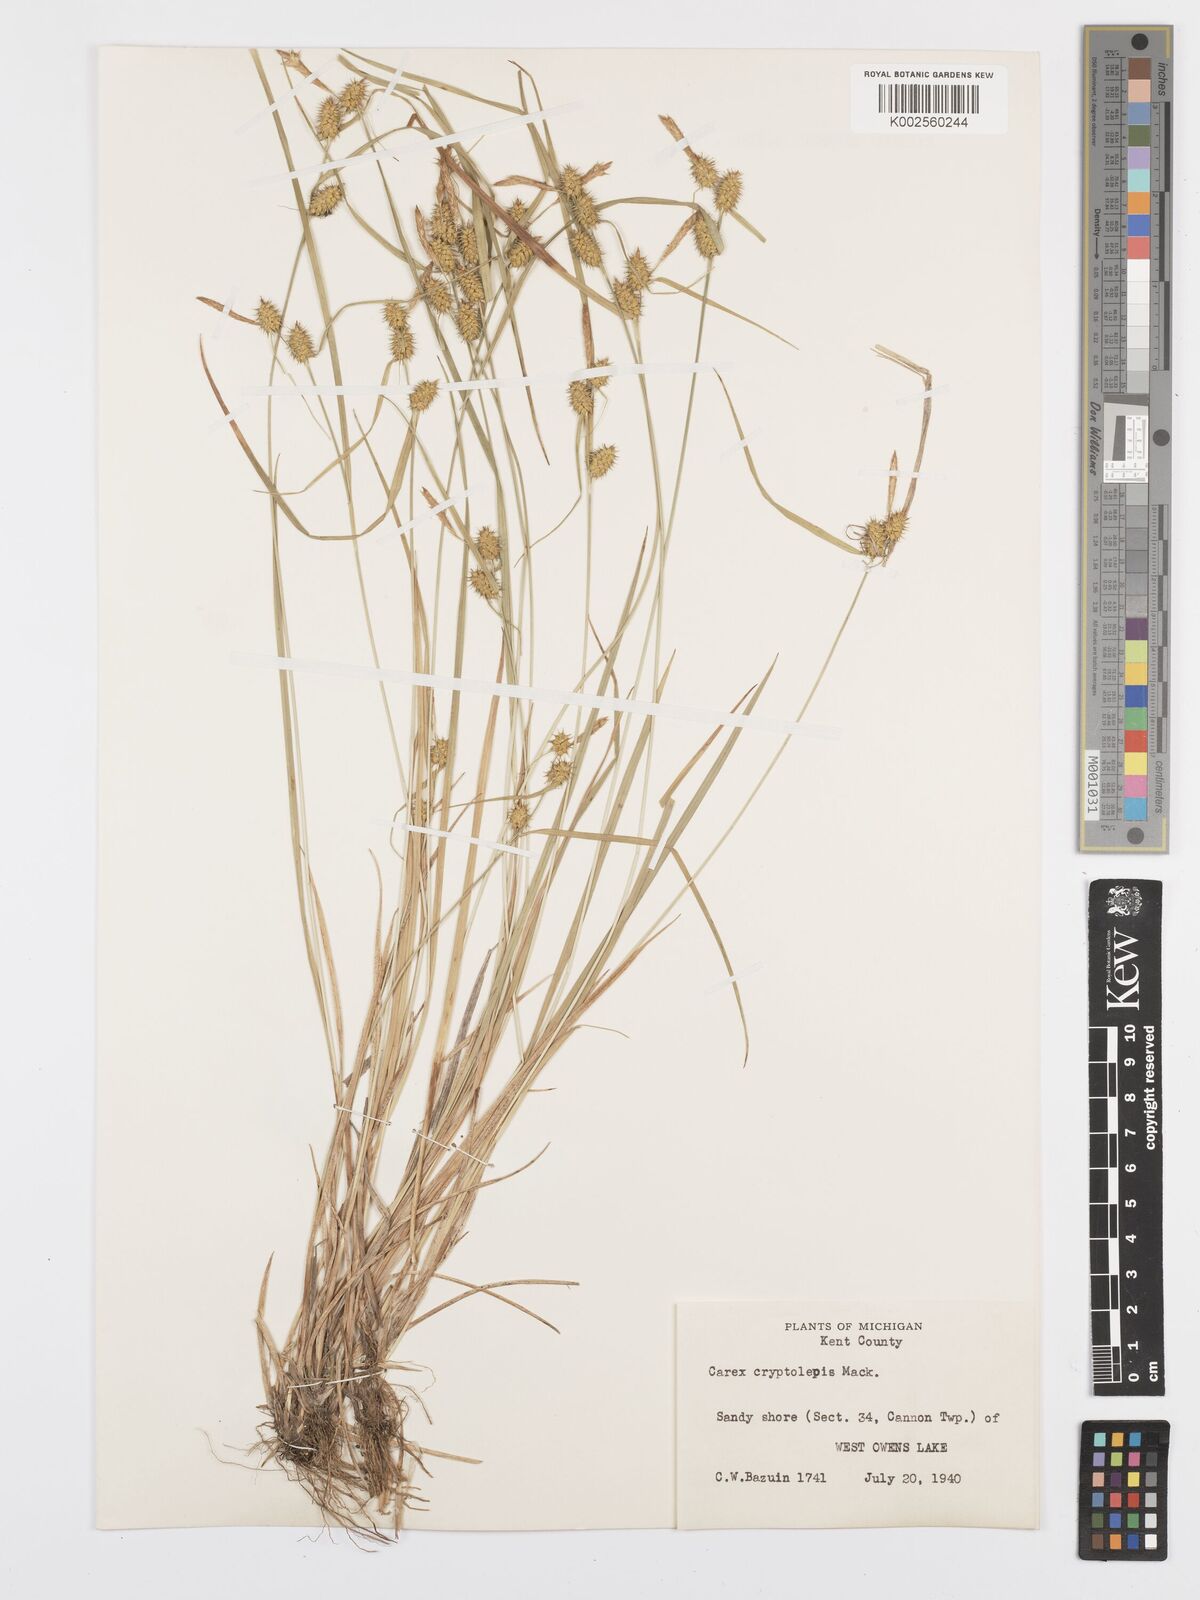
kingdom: Plantae
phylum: Tracheophyta
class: Liliopsida
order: Poales
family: Cyperaceae
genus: Carex
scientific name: Carex cryptolepis
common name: Northeastern sedge
